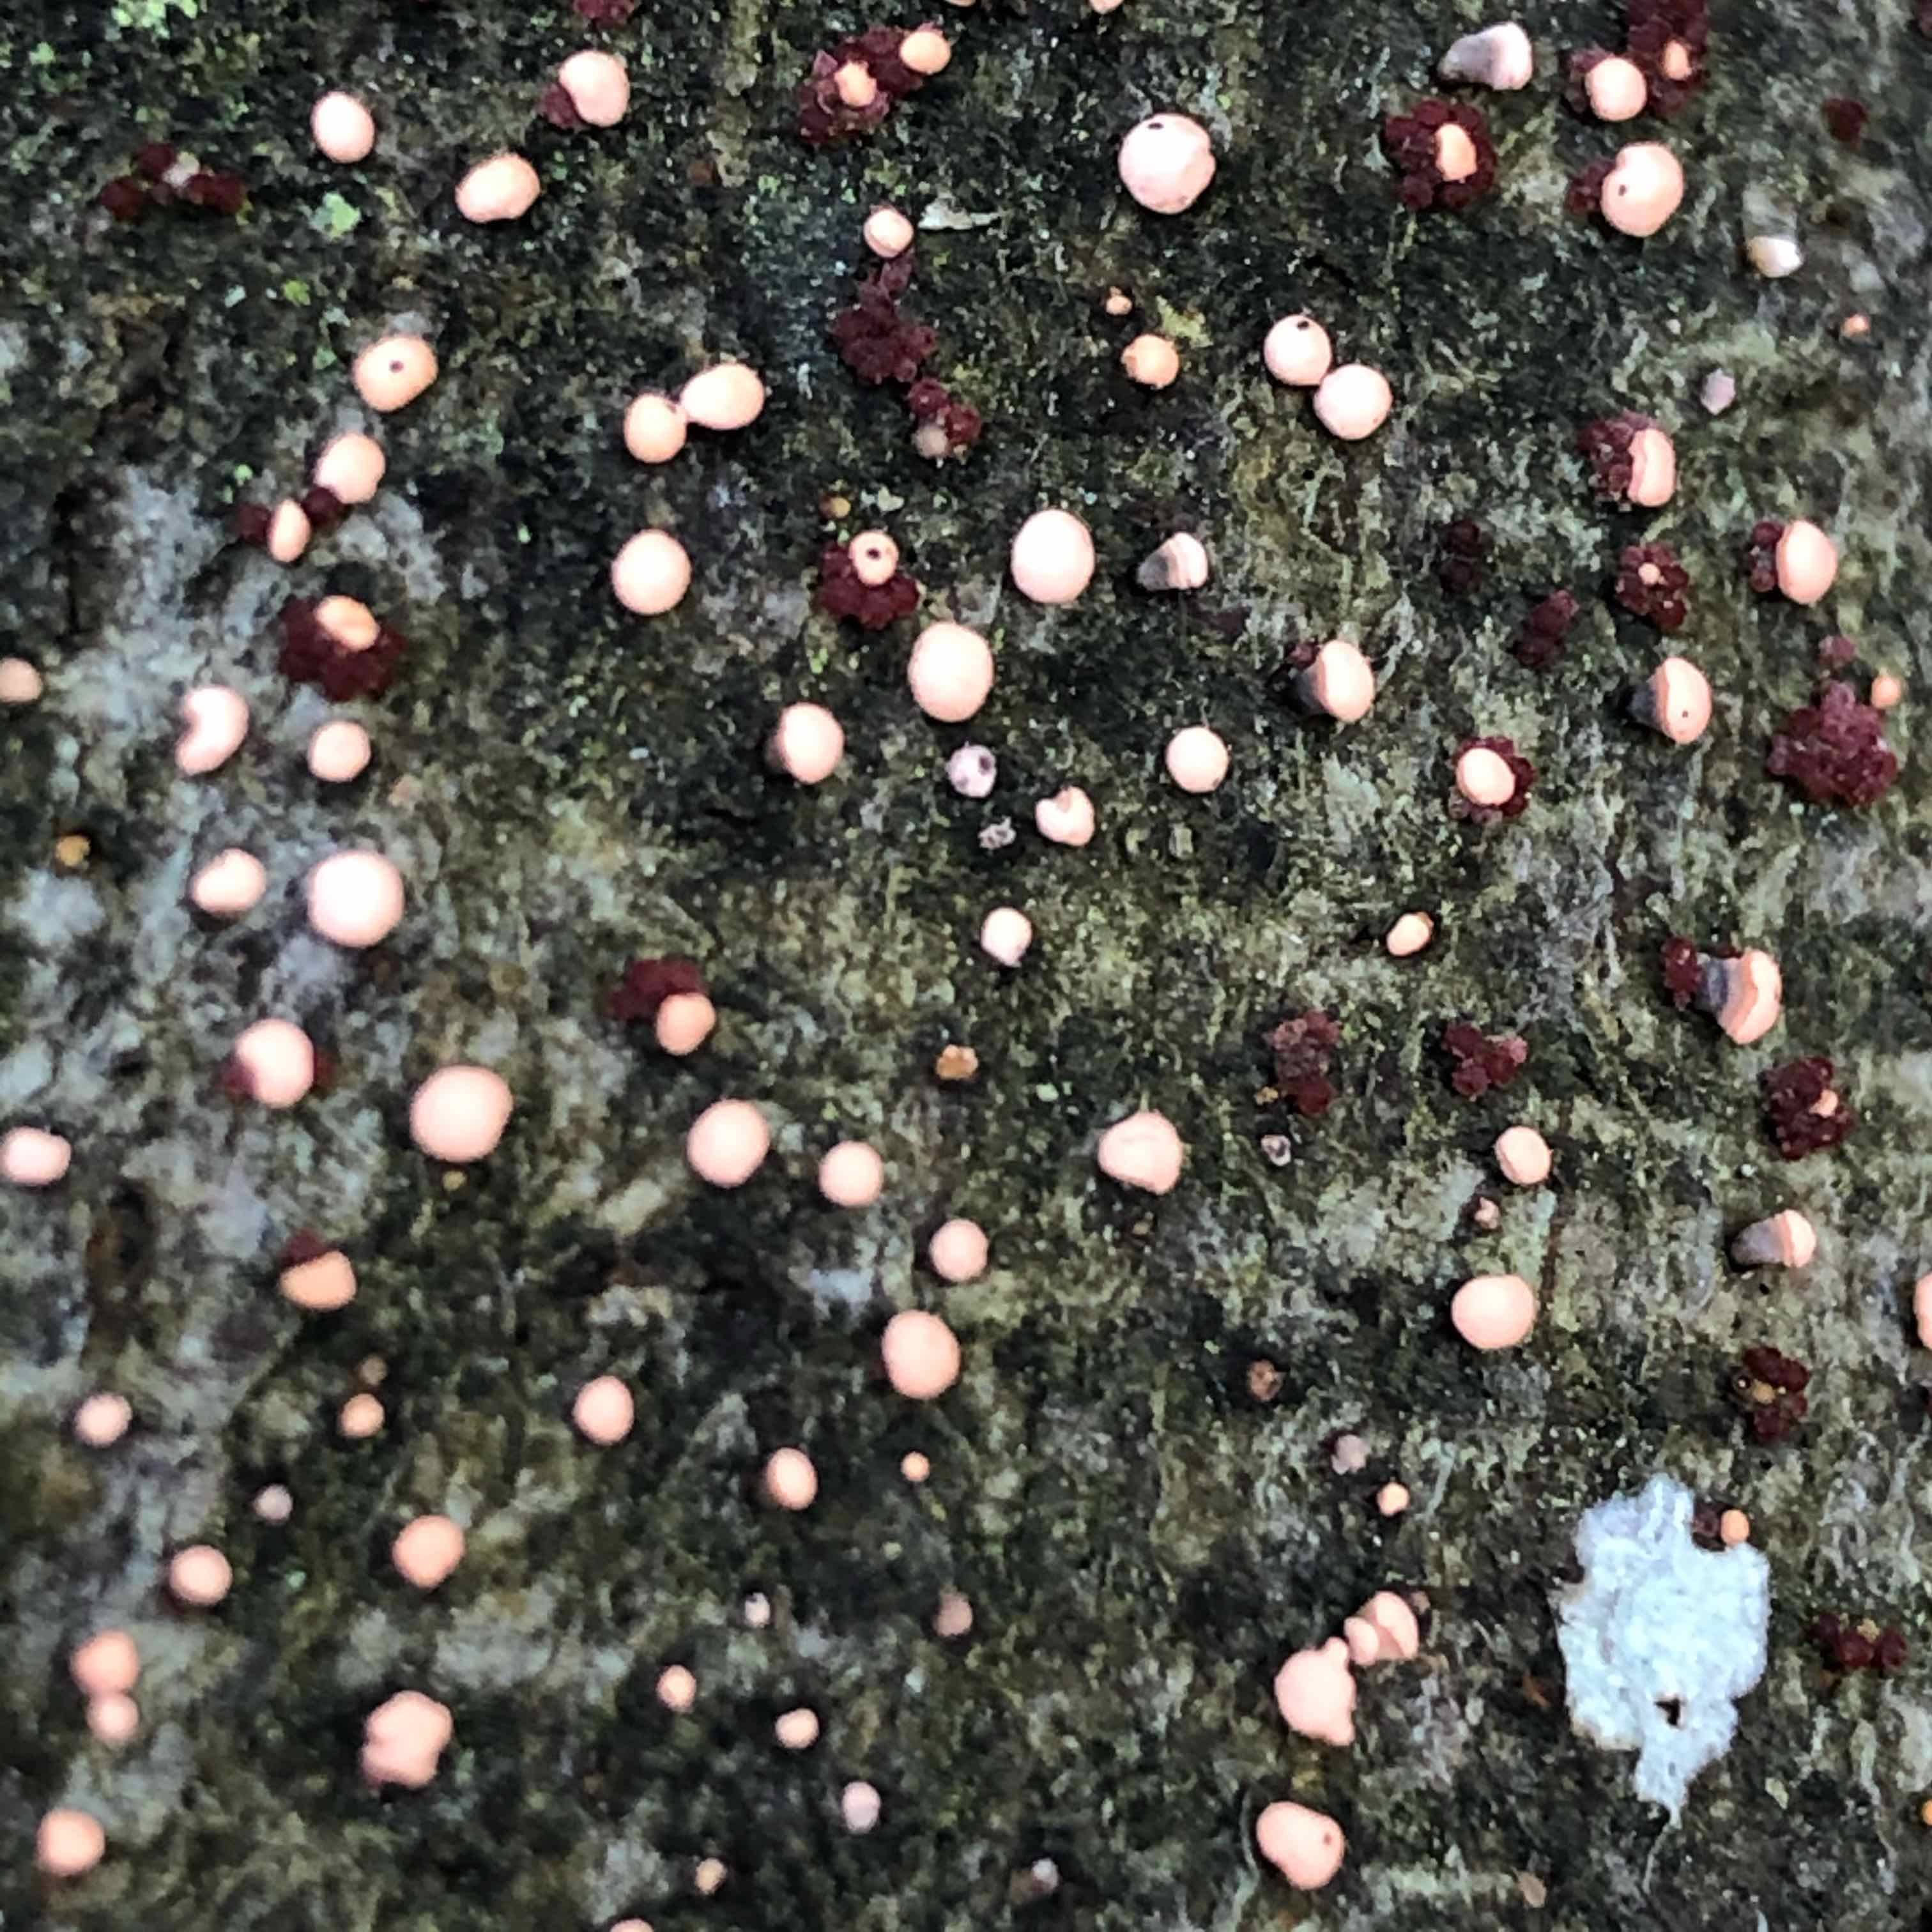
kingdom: Fungi
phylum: Ascomycota
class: Sordariomycetes
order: Hypocreales
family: Nectriaceae
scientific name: Nectriaceae
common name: cinnobersvampfamilien
